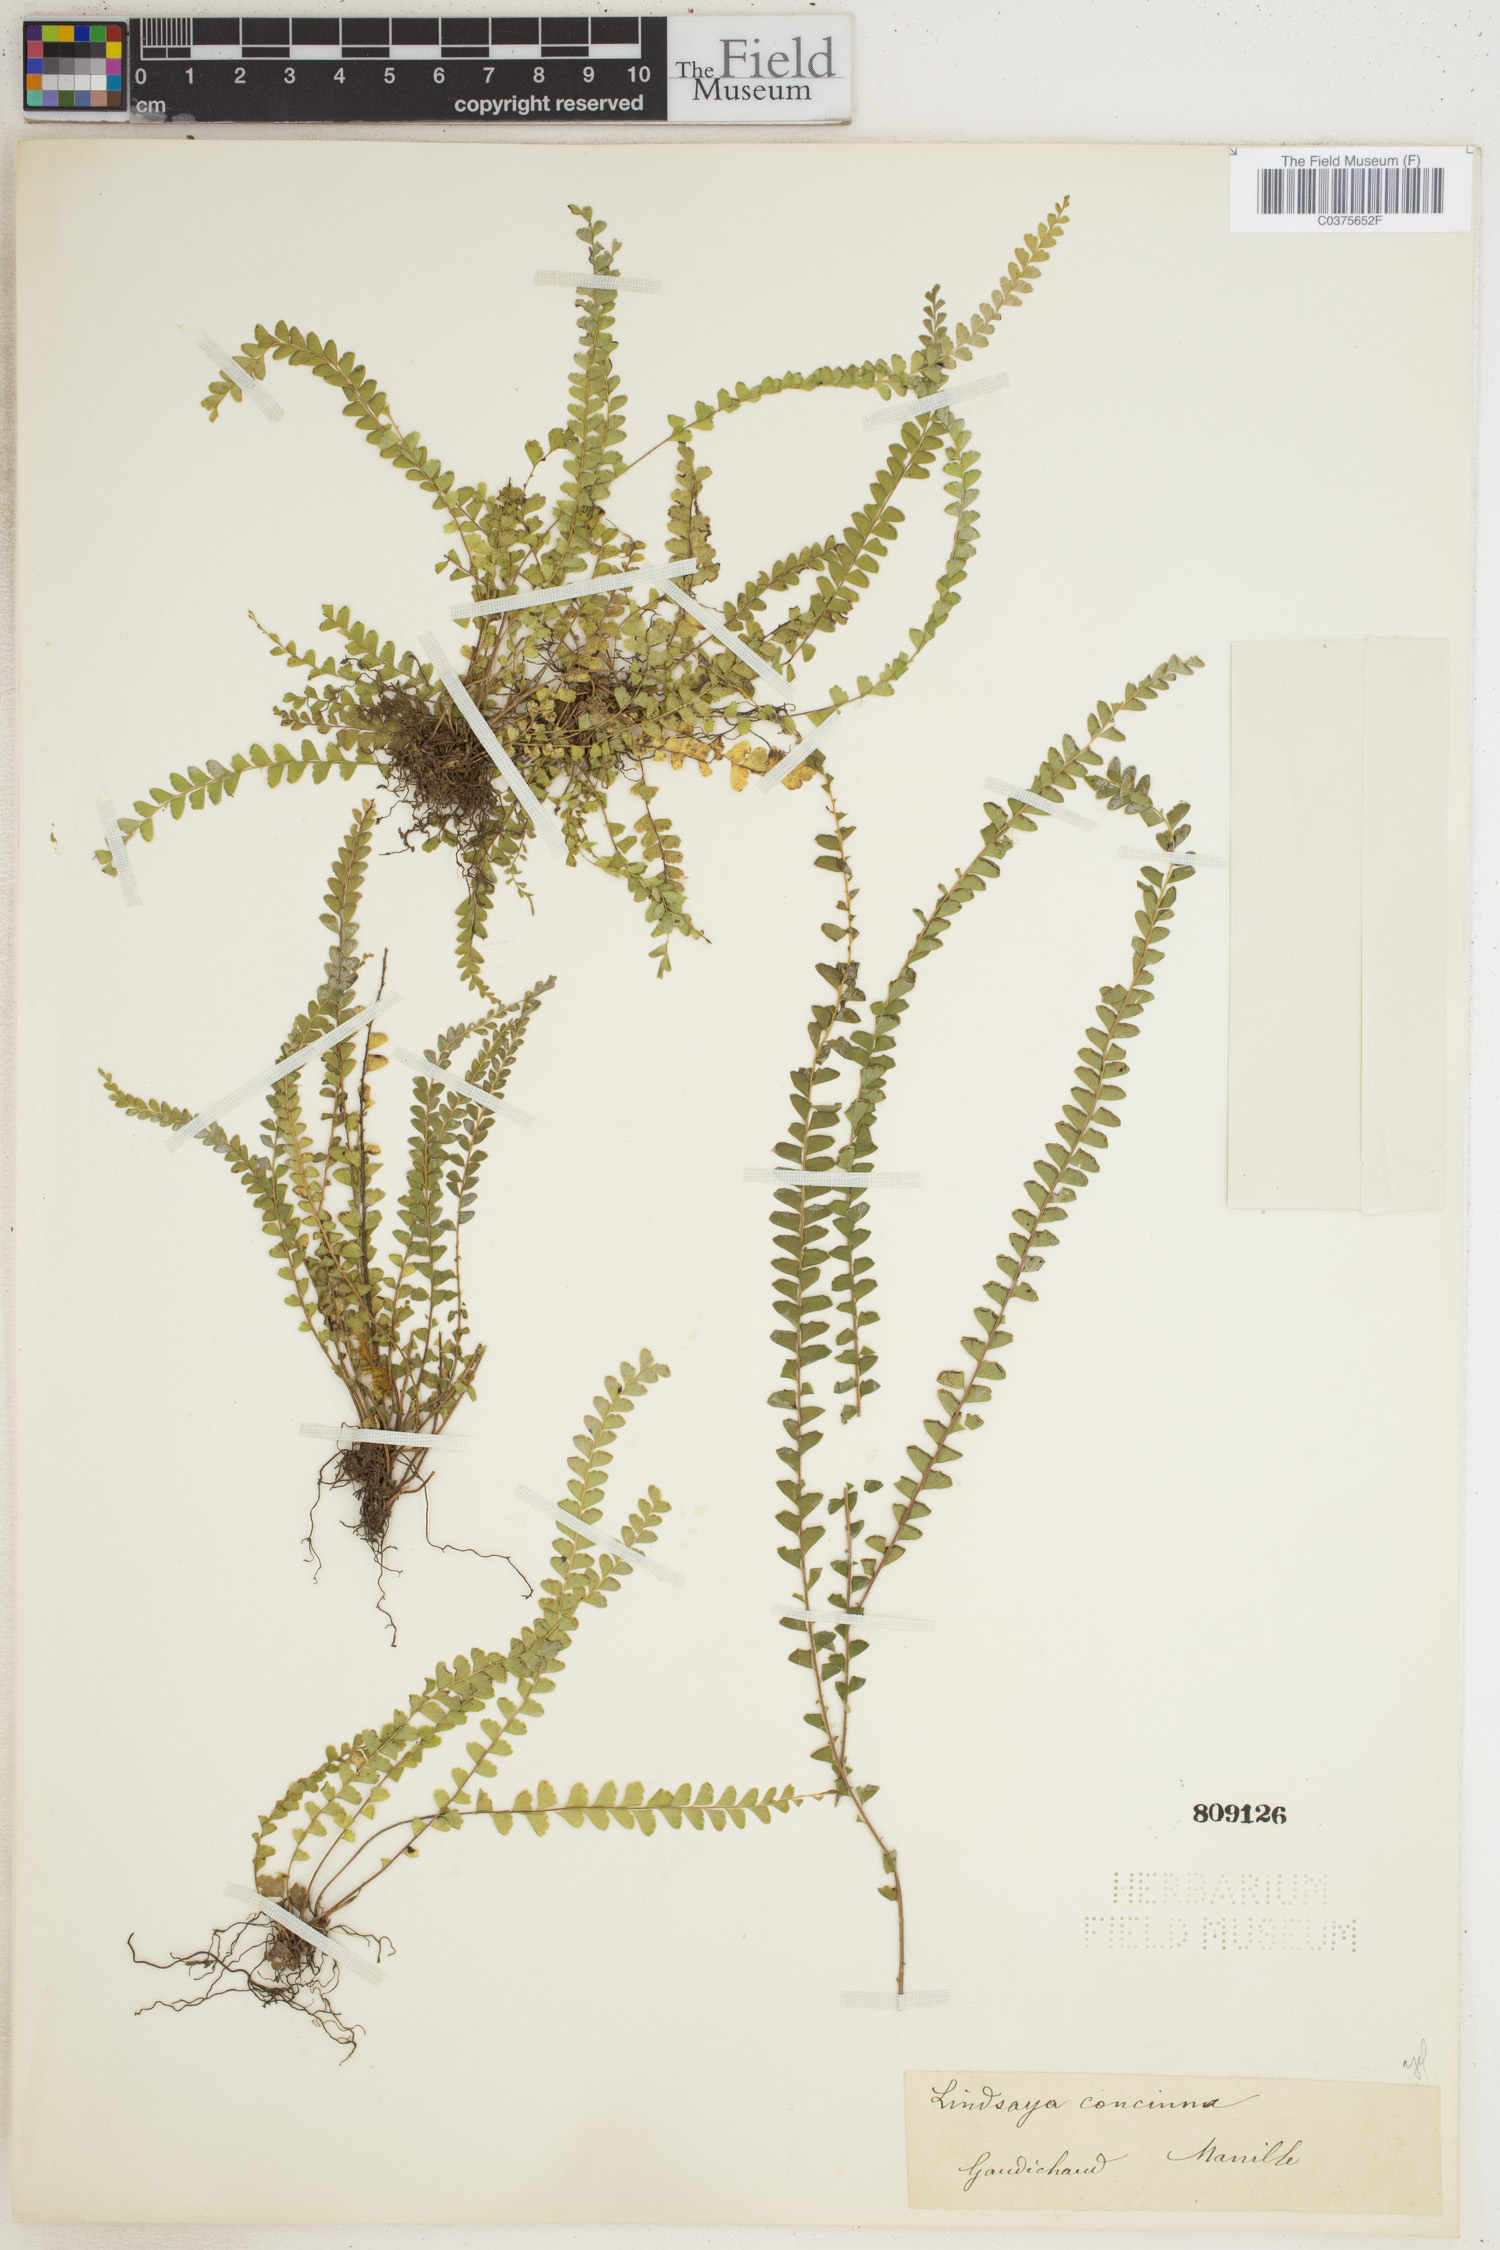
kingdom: Plantae
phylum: Tracheophyta
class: Polypodiopsida
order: Polypodiales
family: Lindsaeaceae
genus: Lindsaea
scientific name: Lindsaea lucida
